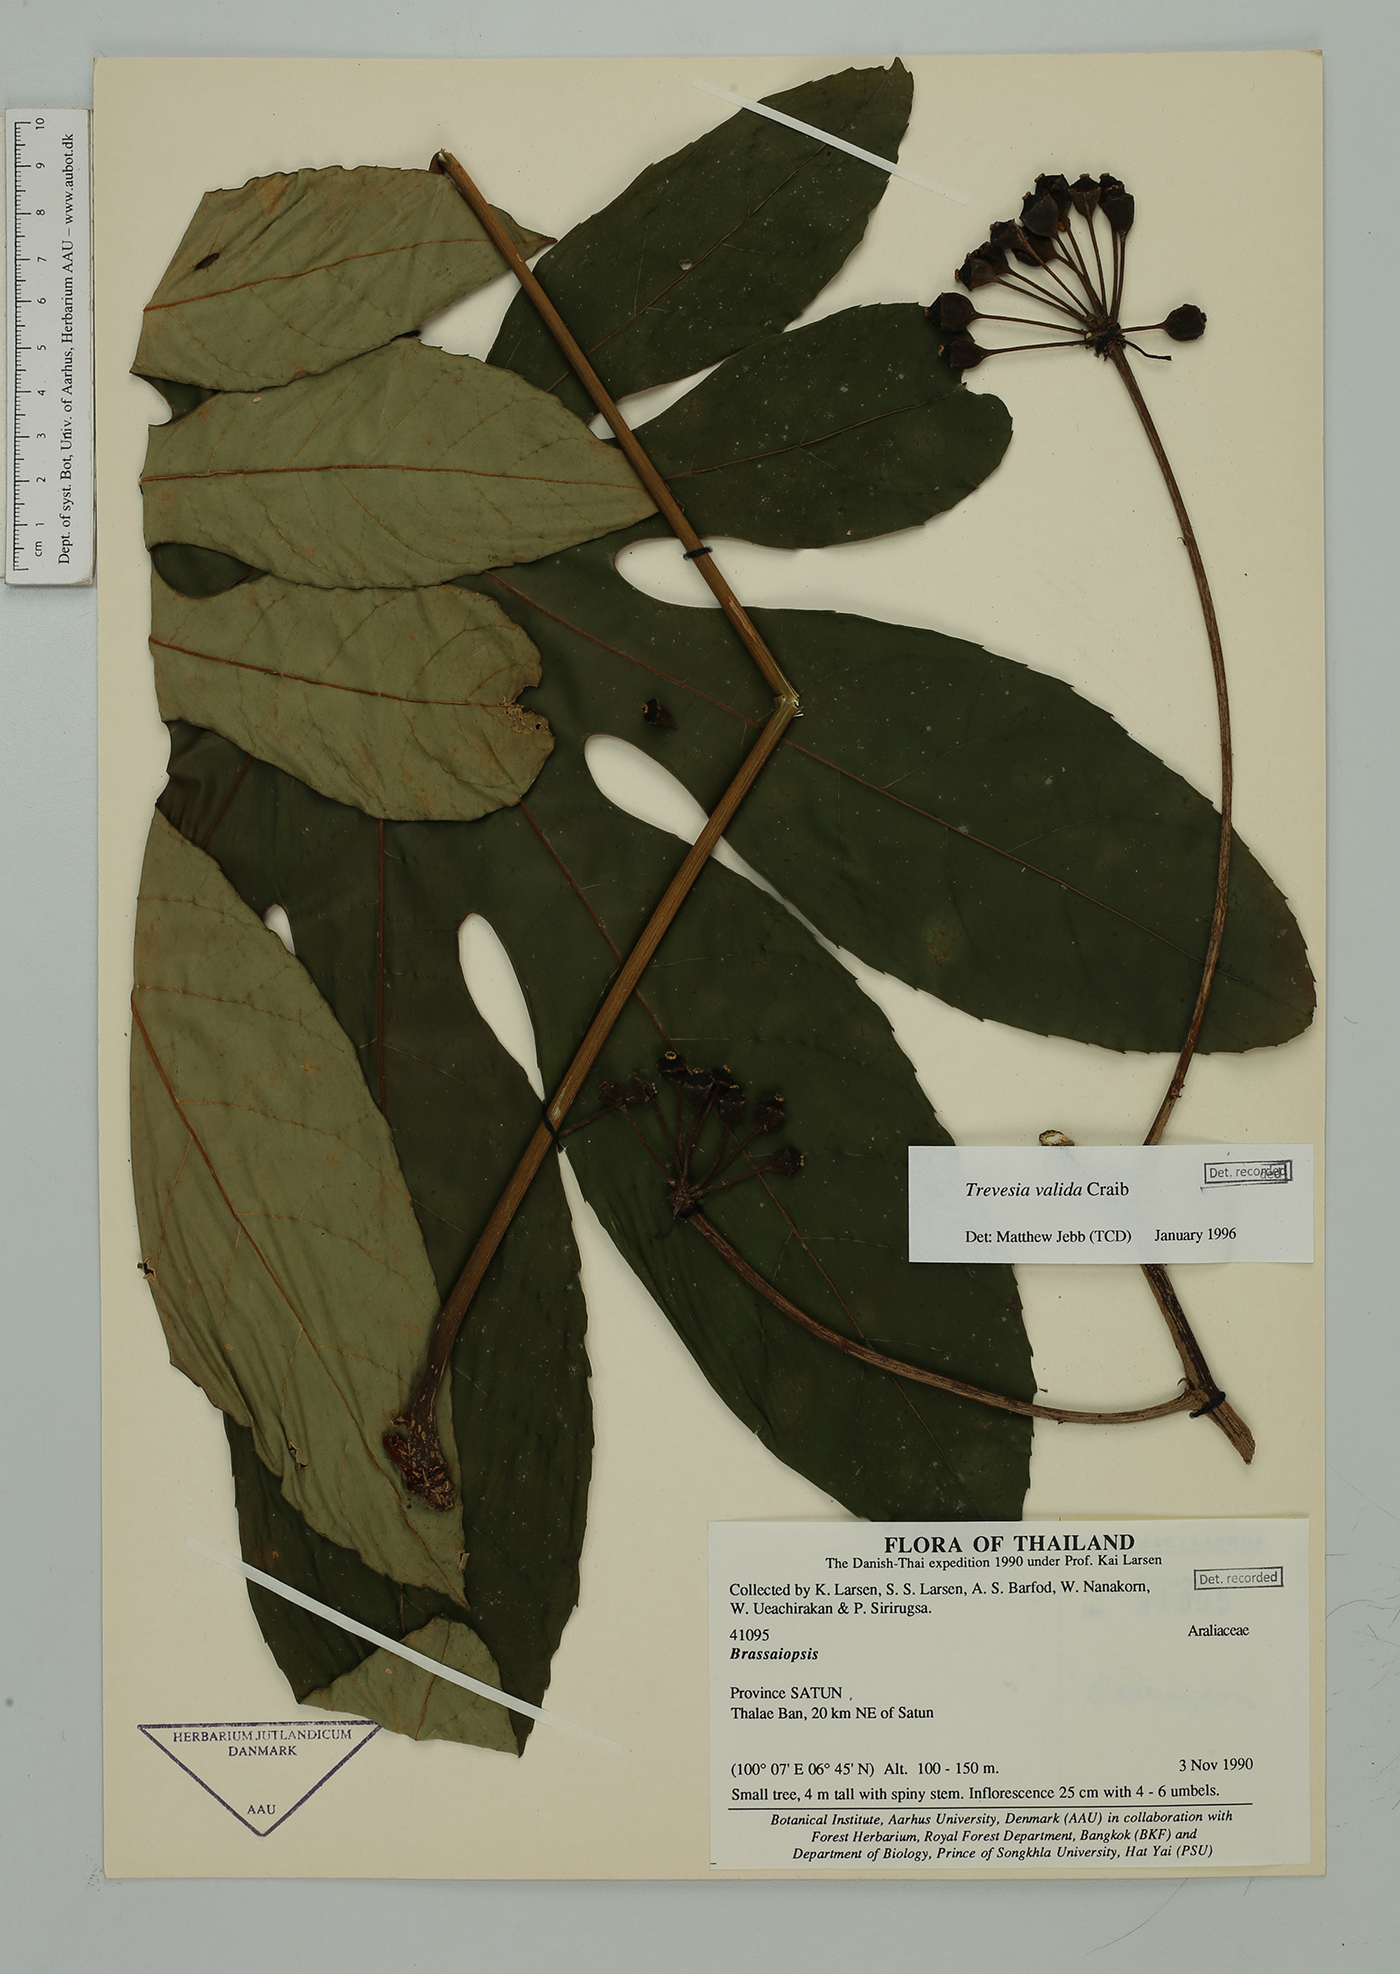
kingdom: Plantae
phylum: Tracheophyta
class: Magnoliopsida
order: Apiales
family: Araliaceae
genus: Brassaiopsis
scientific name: Brassaiopsis
